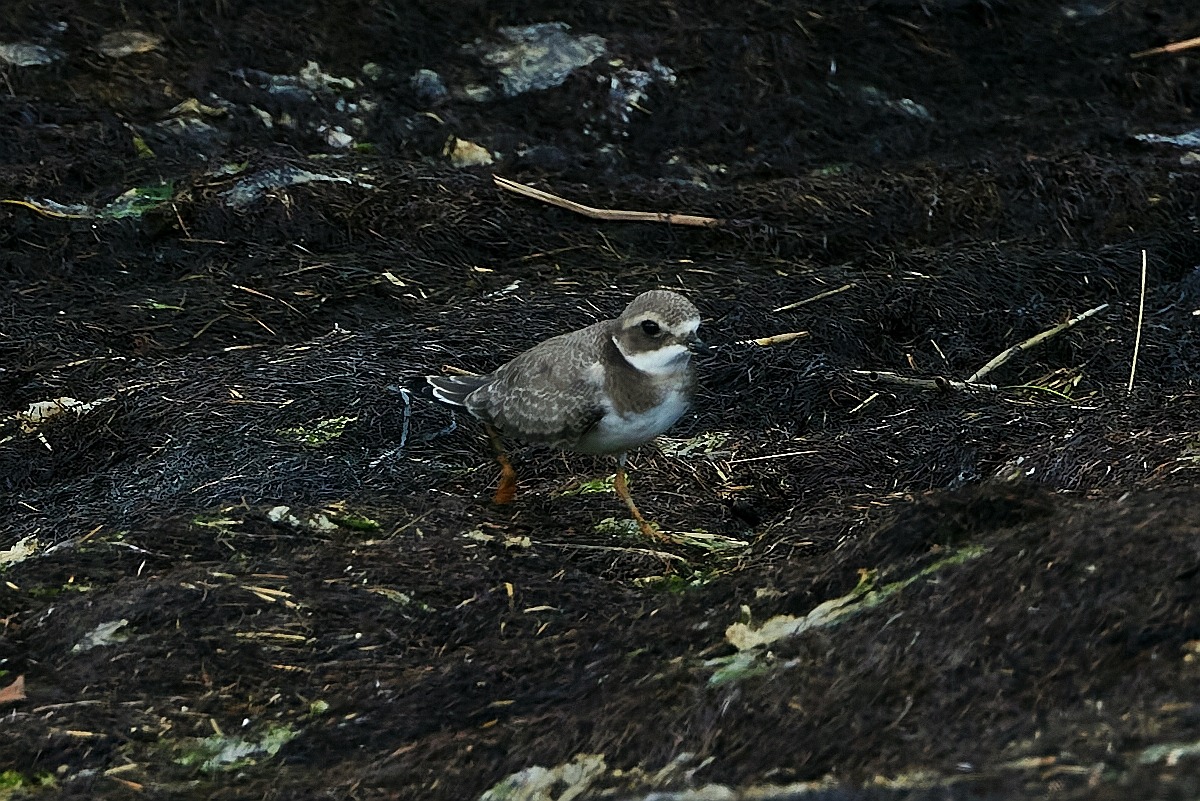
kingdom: Animalia
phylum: Chordata
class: Aves
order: Charadriiformes
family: Charadriidae
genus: Charadrius
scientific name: Charadrius hiaticula
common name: Stor præstekrave
